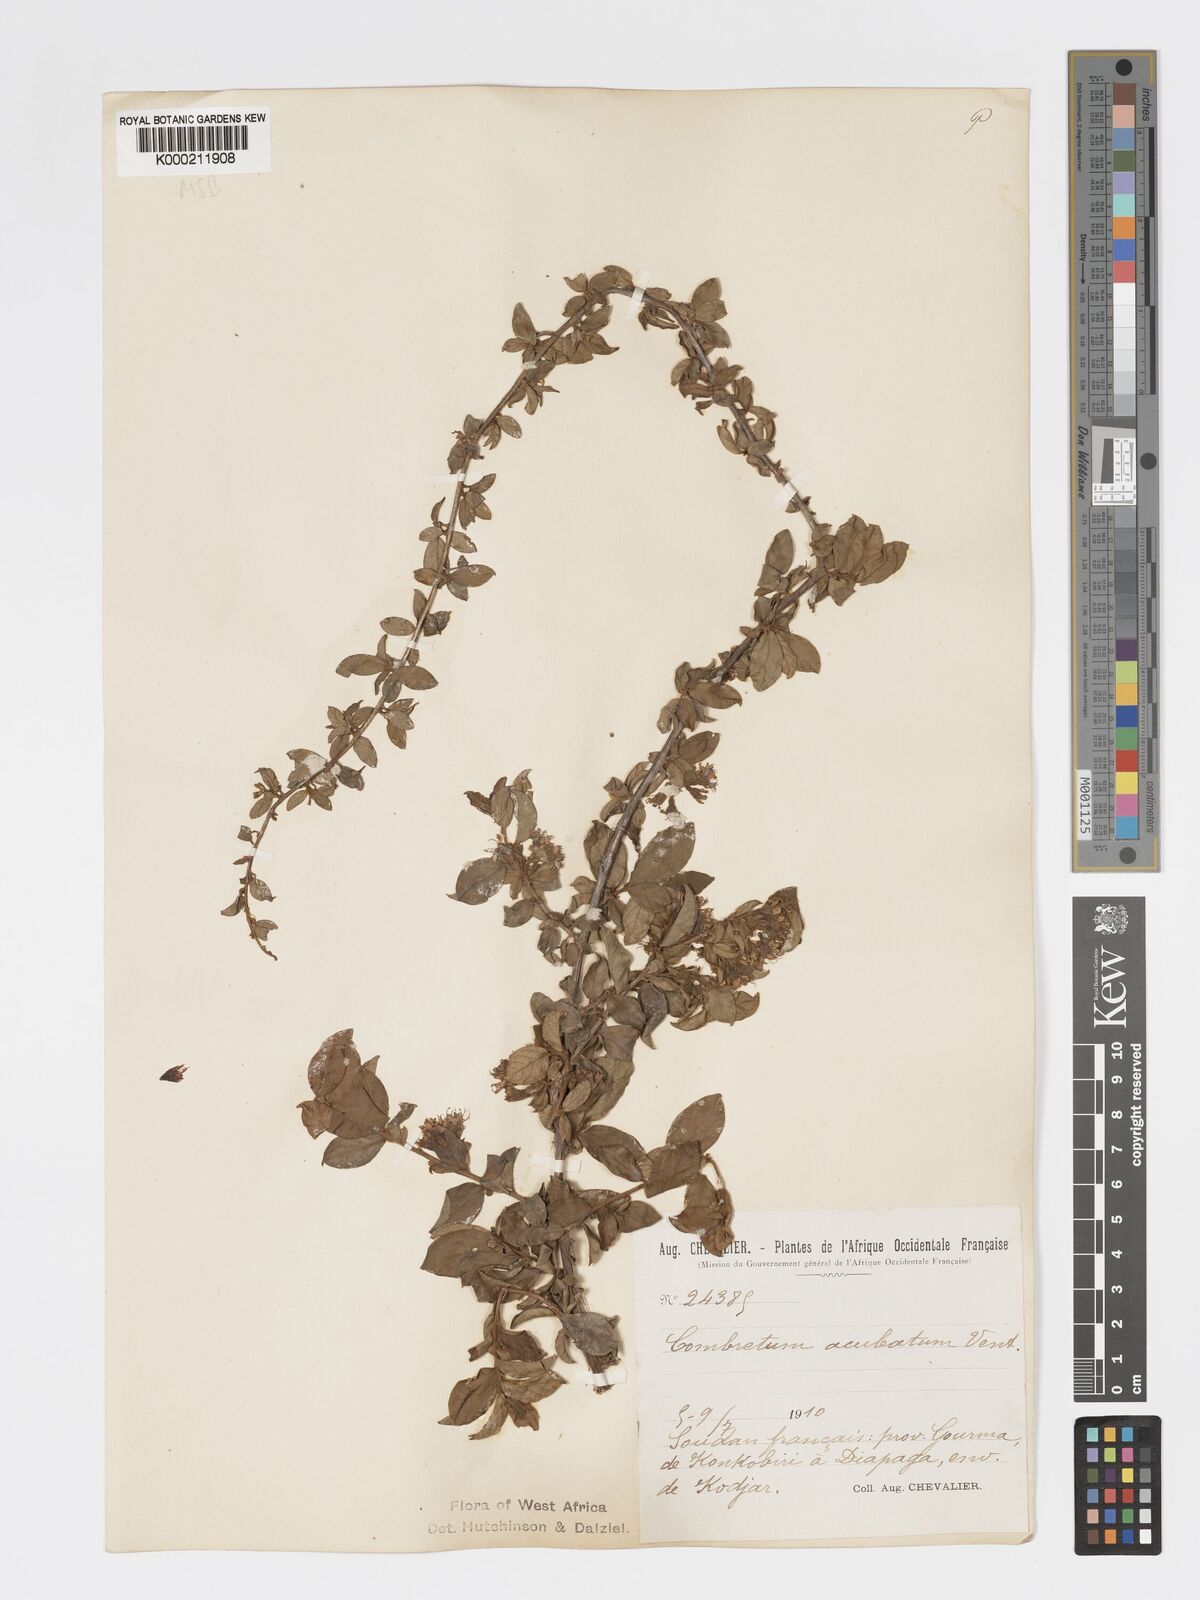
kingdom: Plantae
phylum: Tracheophyta
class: Magnoliopsida
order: Myrtales
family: Combretaceae
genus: Combretum
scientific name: Combretum aculeatum
